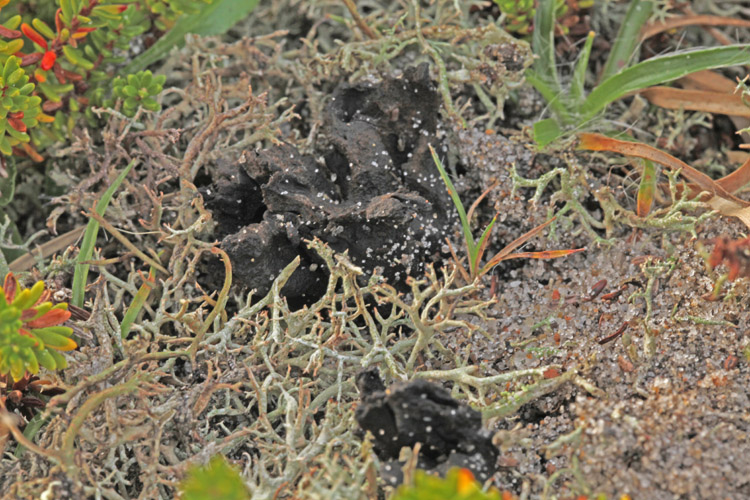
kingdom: Fungi
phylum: Ascomycota
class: Geoglossomycetes
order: Geoglossales
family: Geoglossaceae
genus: Sabuloglossum
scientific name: Sabuloglossum arenarium
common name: klit-jordtunge
